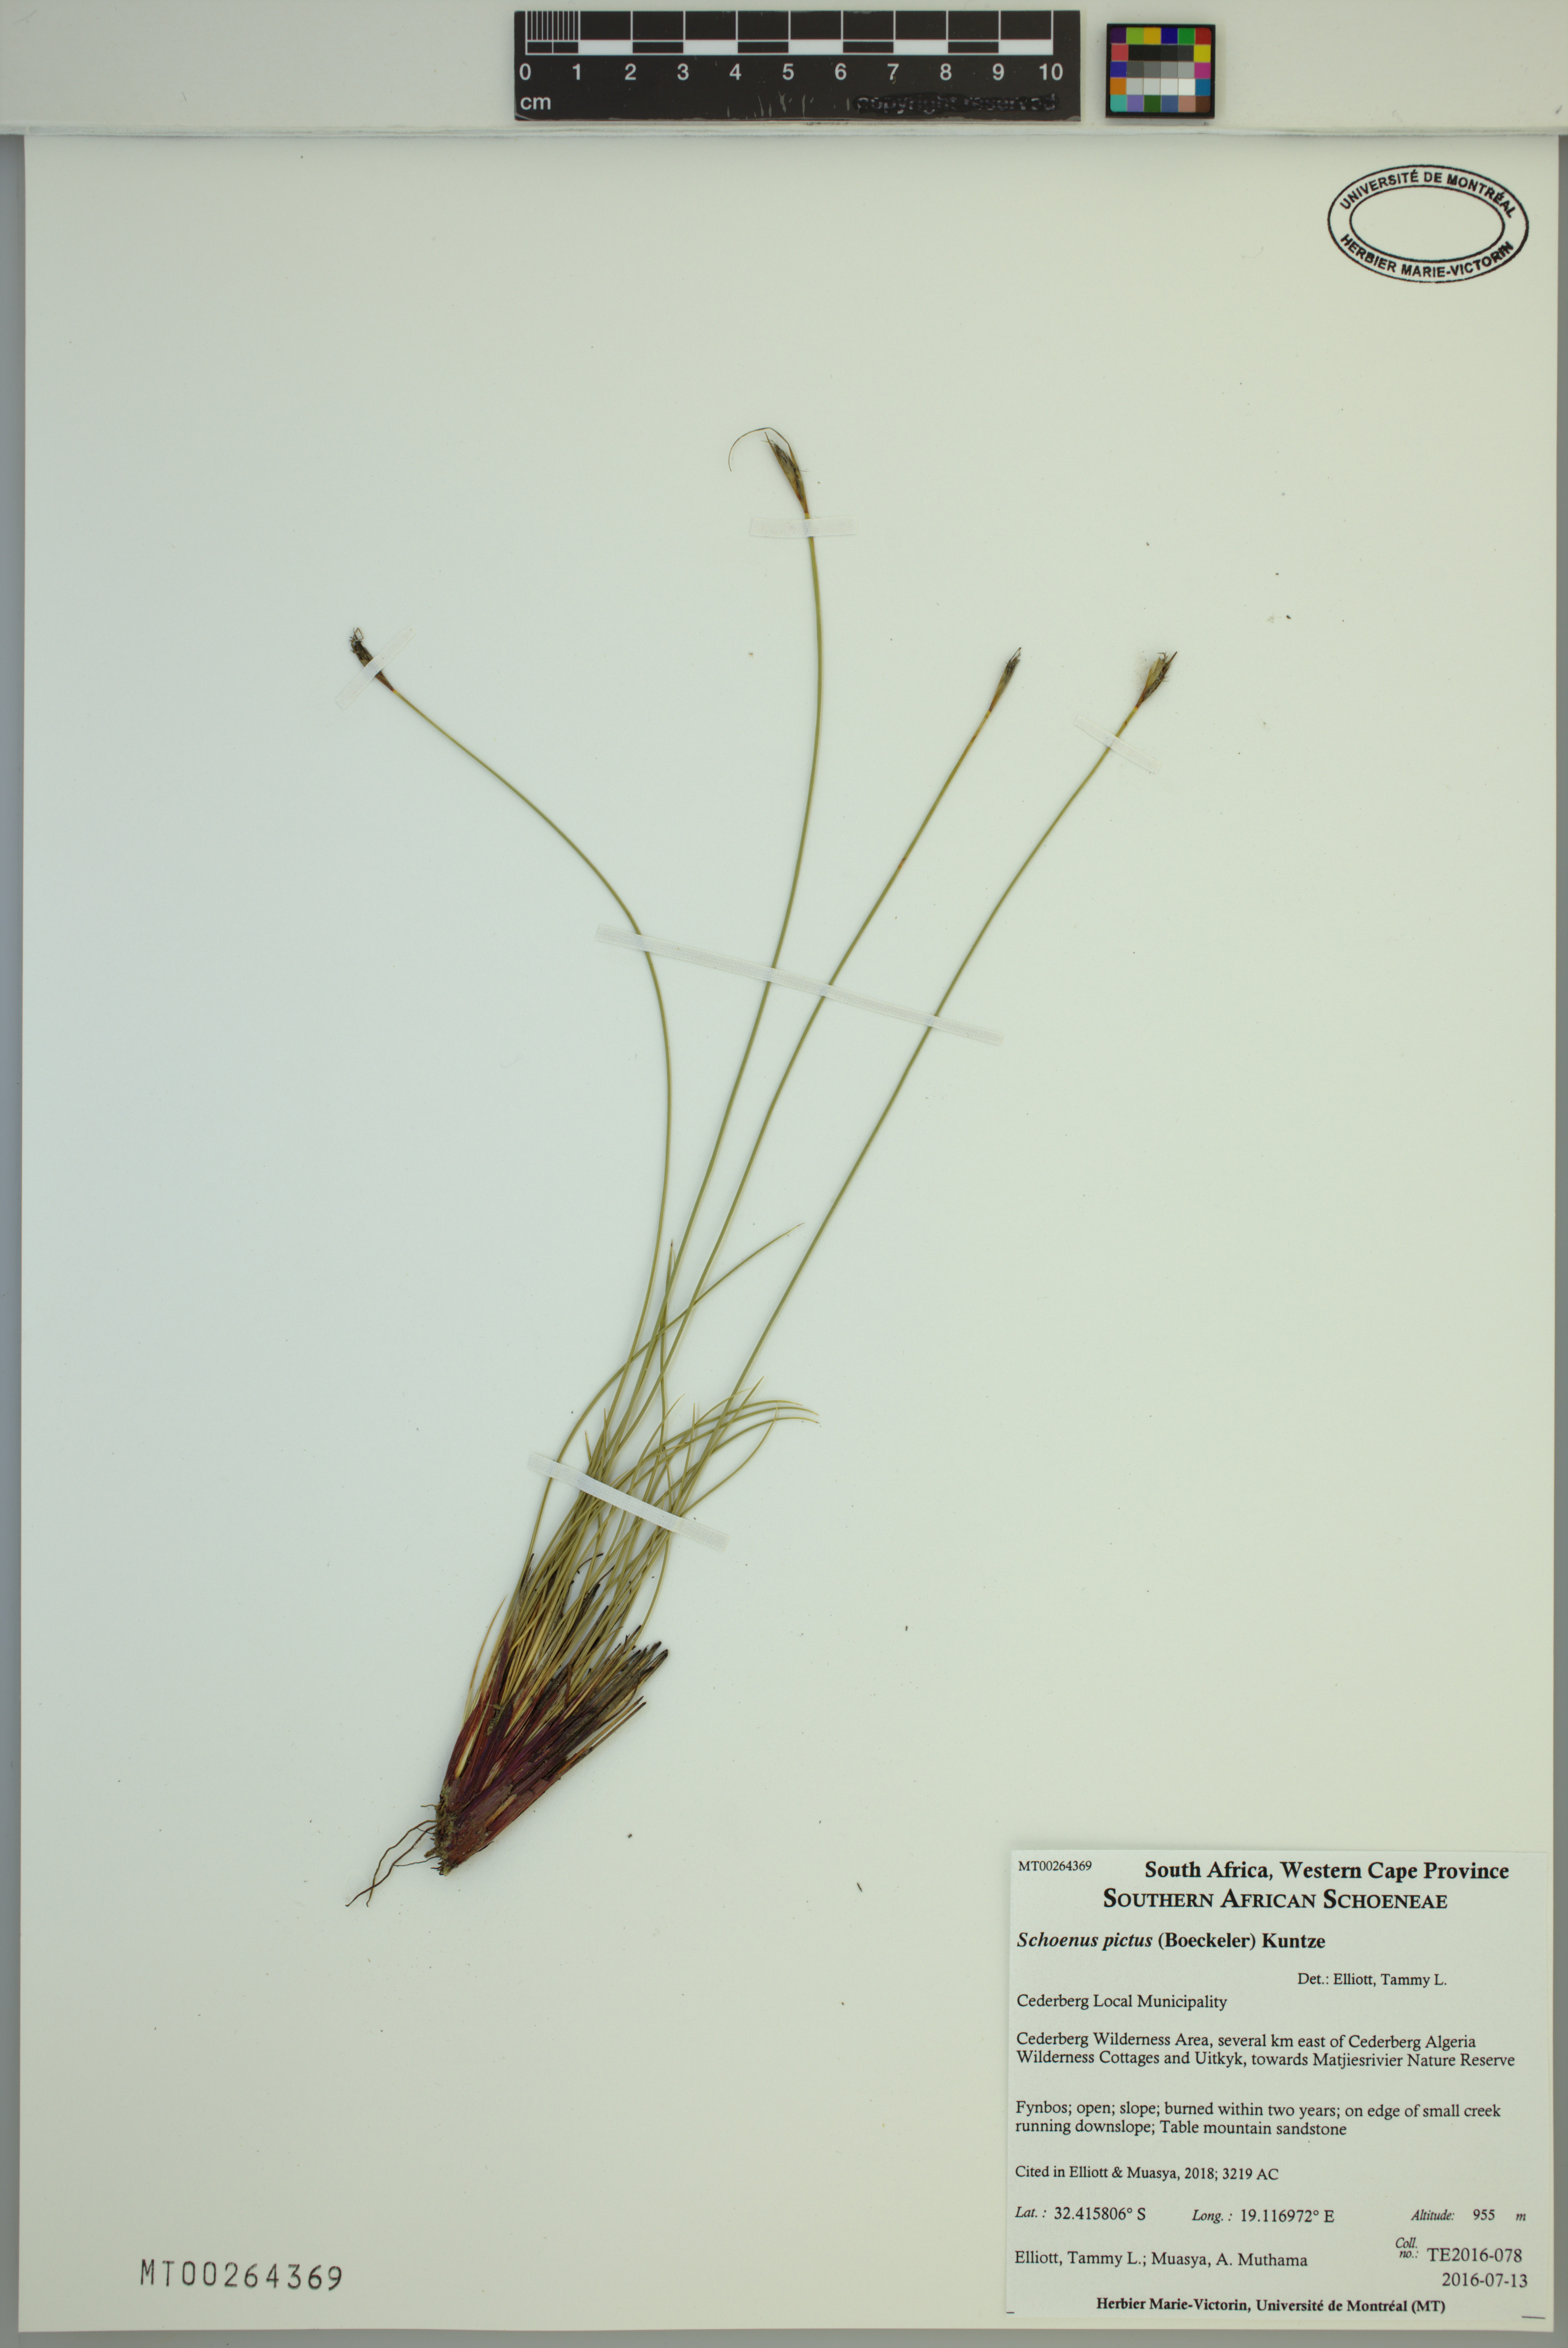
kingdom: Plantae
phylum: Tracheophyta
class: Liliopsida
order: Poales
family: Cyperaceae
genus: Schoenus
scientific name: Schoenus pictus
